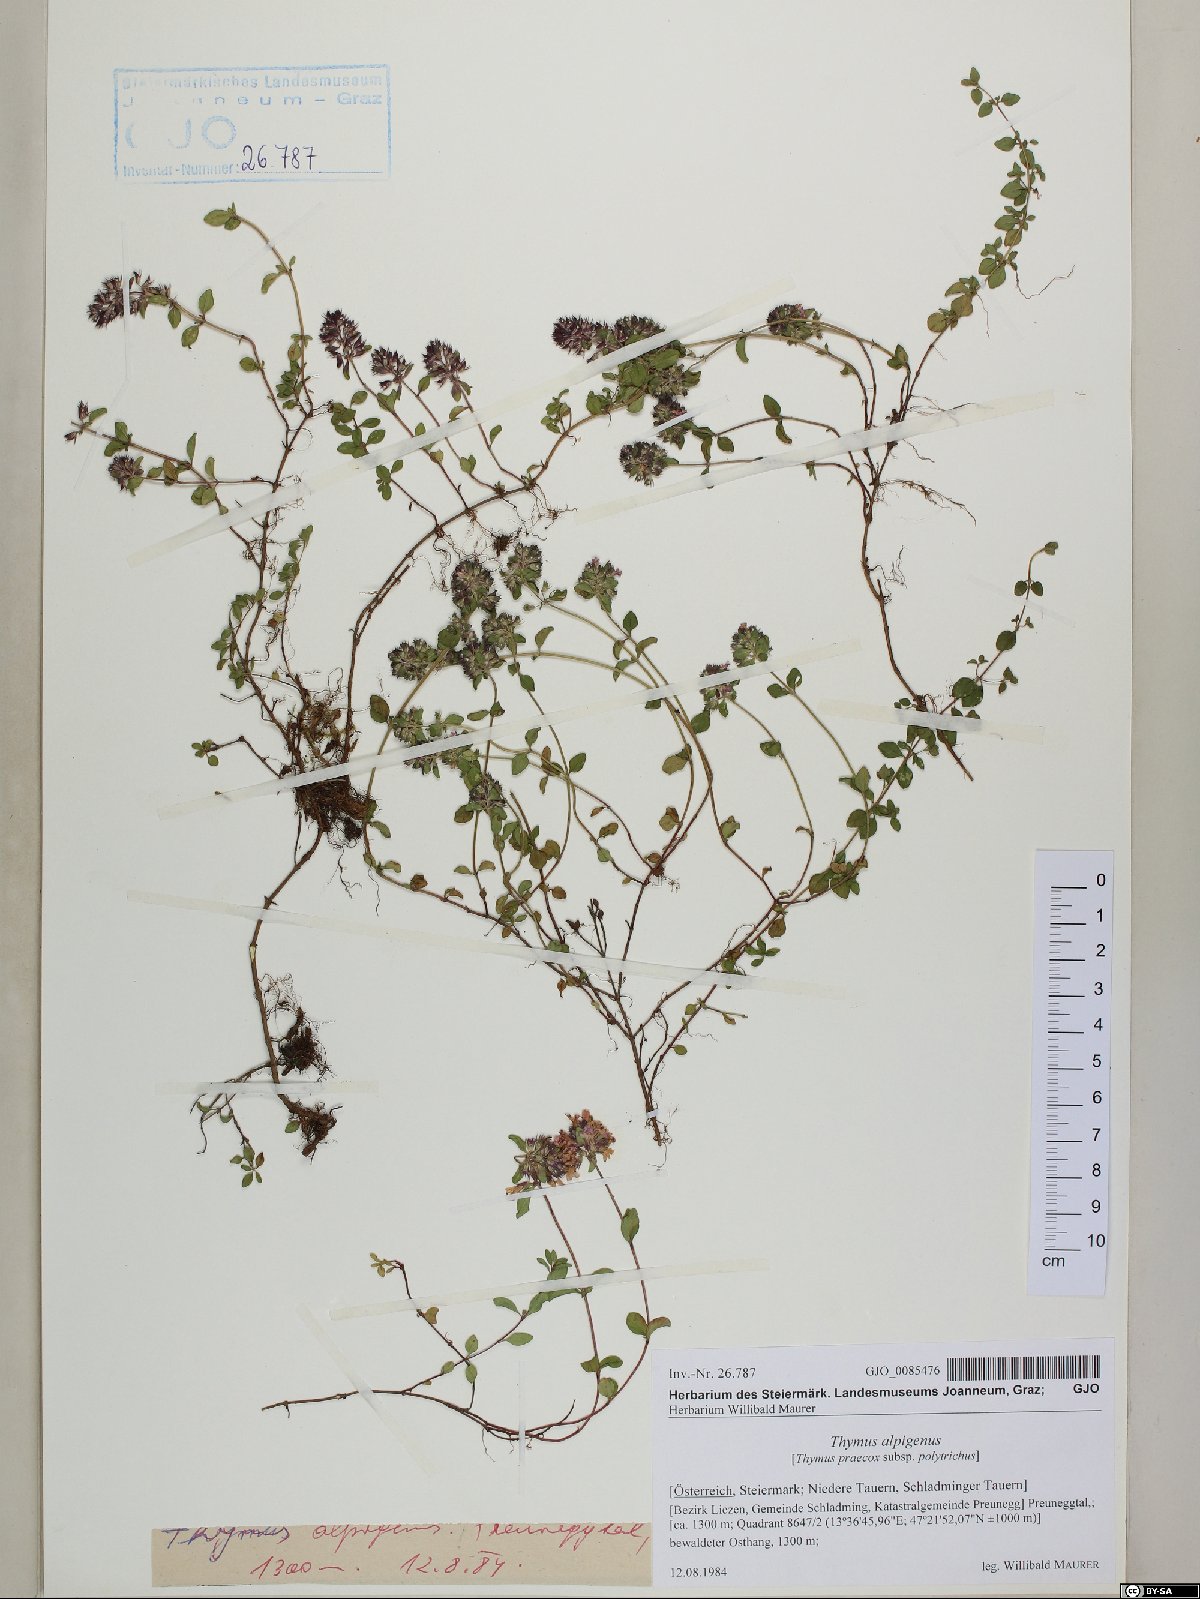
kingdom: Plantae
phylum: Tracheophyta
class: Magnoliopsida
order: Lamiales
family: Lamiaceae
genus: Thymus
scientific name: Thymus praecox
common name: Wild thyme
